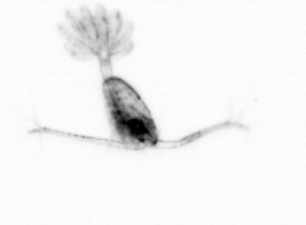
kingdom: Animalia
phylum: Arthropoda
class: Copepoda
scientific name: Copepoda
